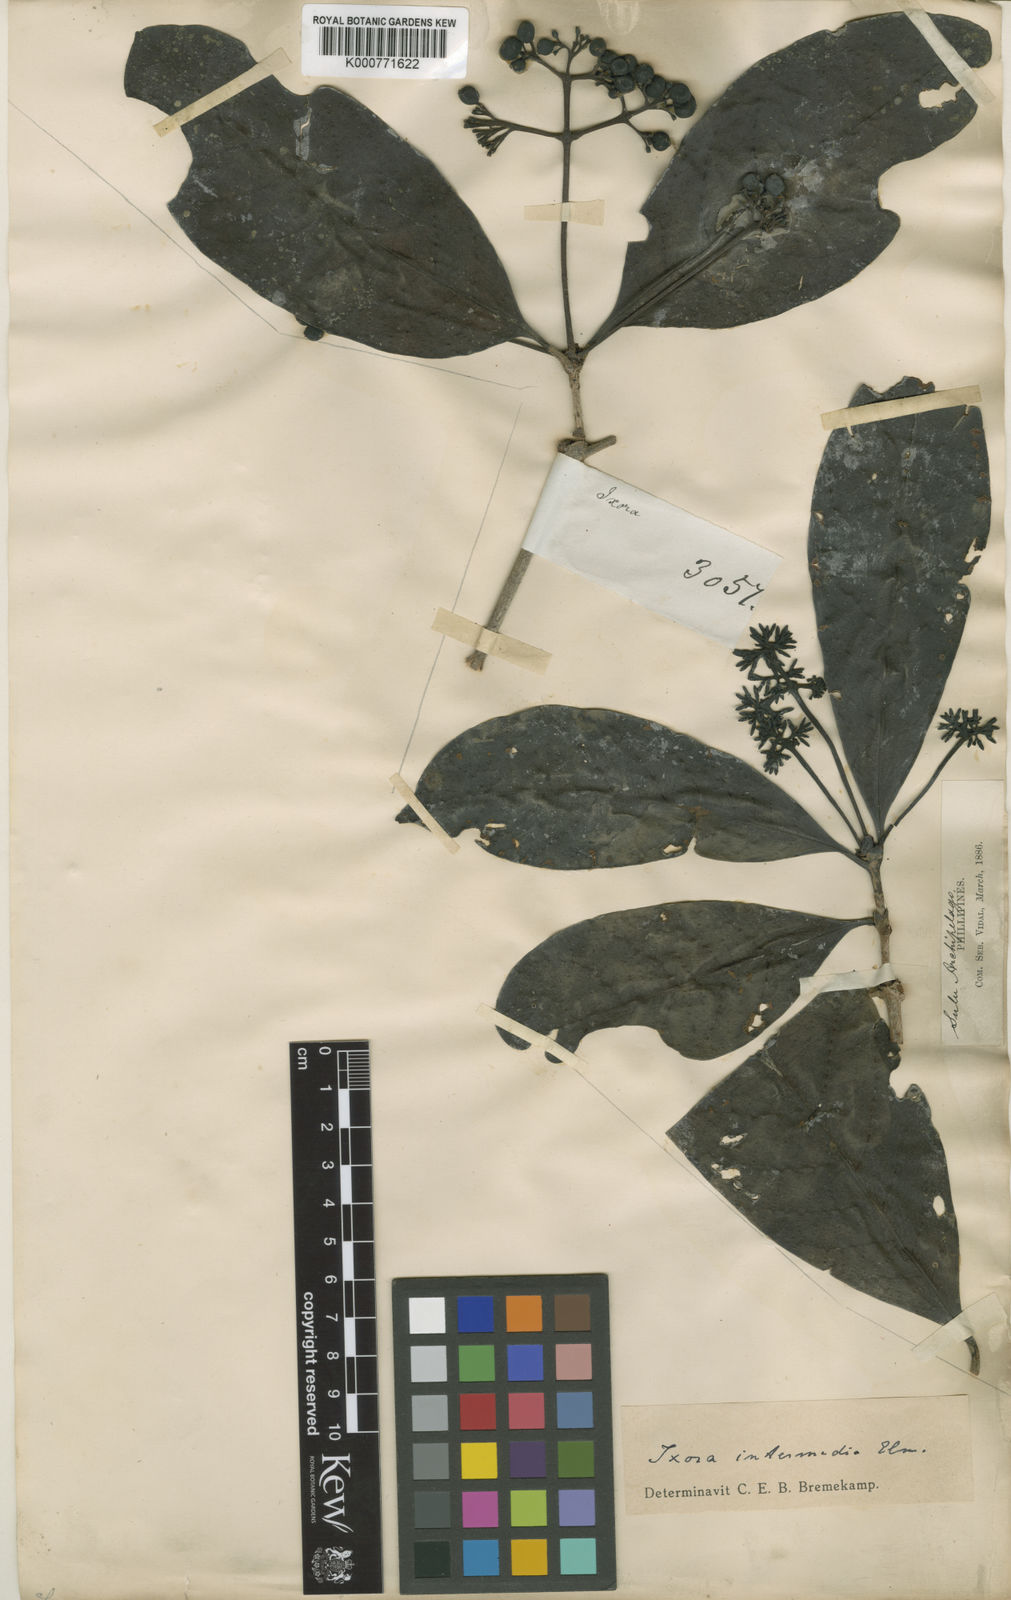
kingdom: Plantae
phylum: Tracheophyta
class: Magnoliopsida
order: Gentianales
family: Rubiaceae
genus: Ixora
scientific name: Ixora intermedia
